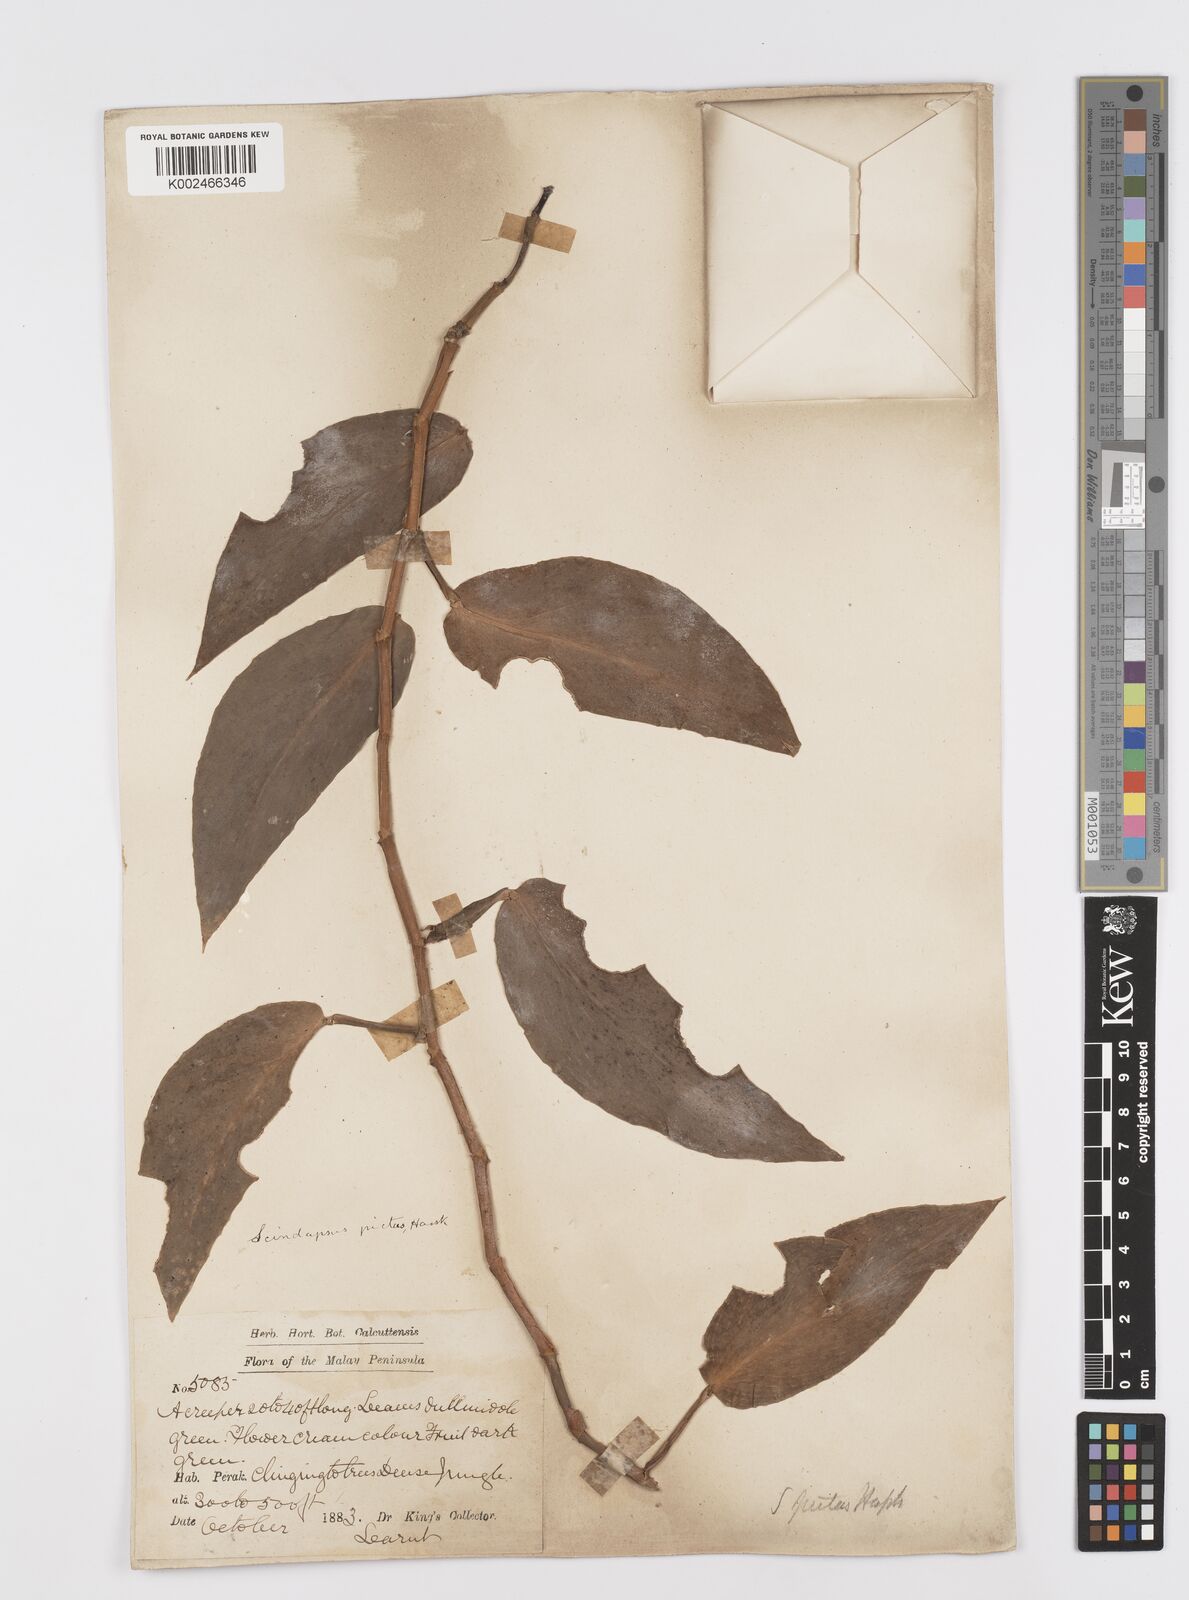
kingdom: Plantae
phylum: Tracheophyta
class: Liliopsida
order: Alismatales
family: Araceae
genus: Scindapsus
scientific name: Scindapsus pictus
